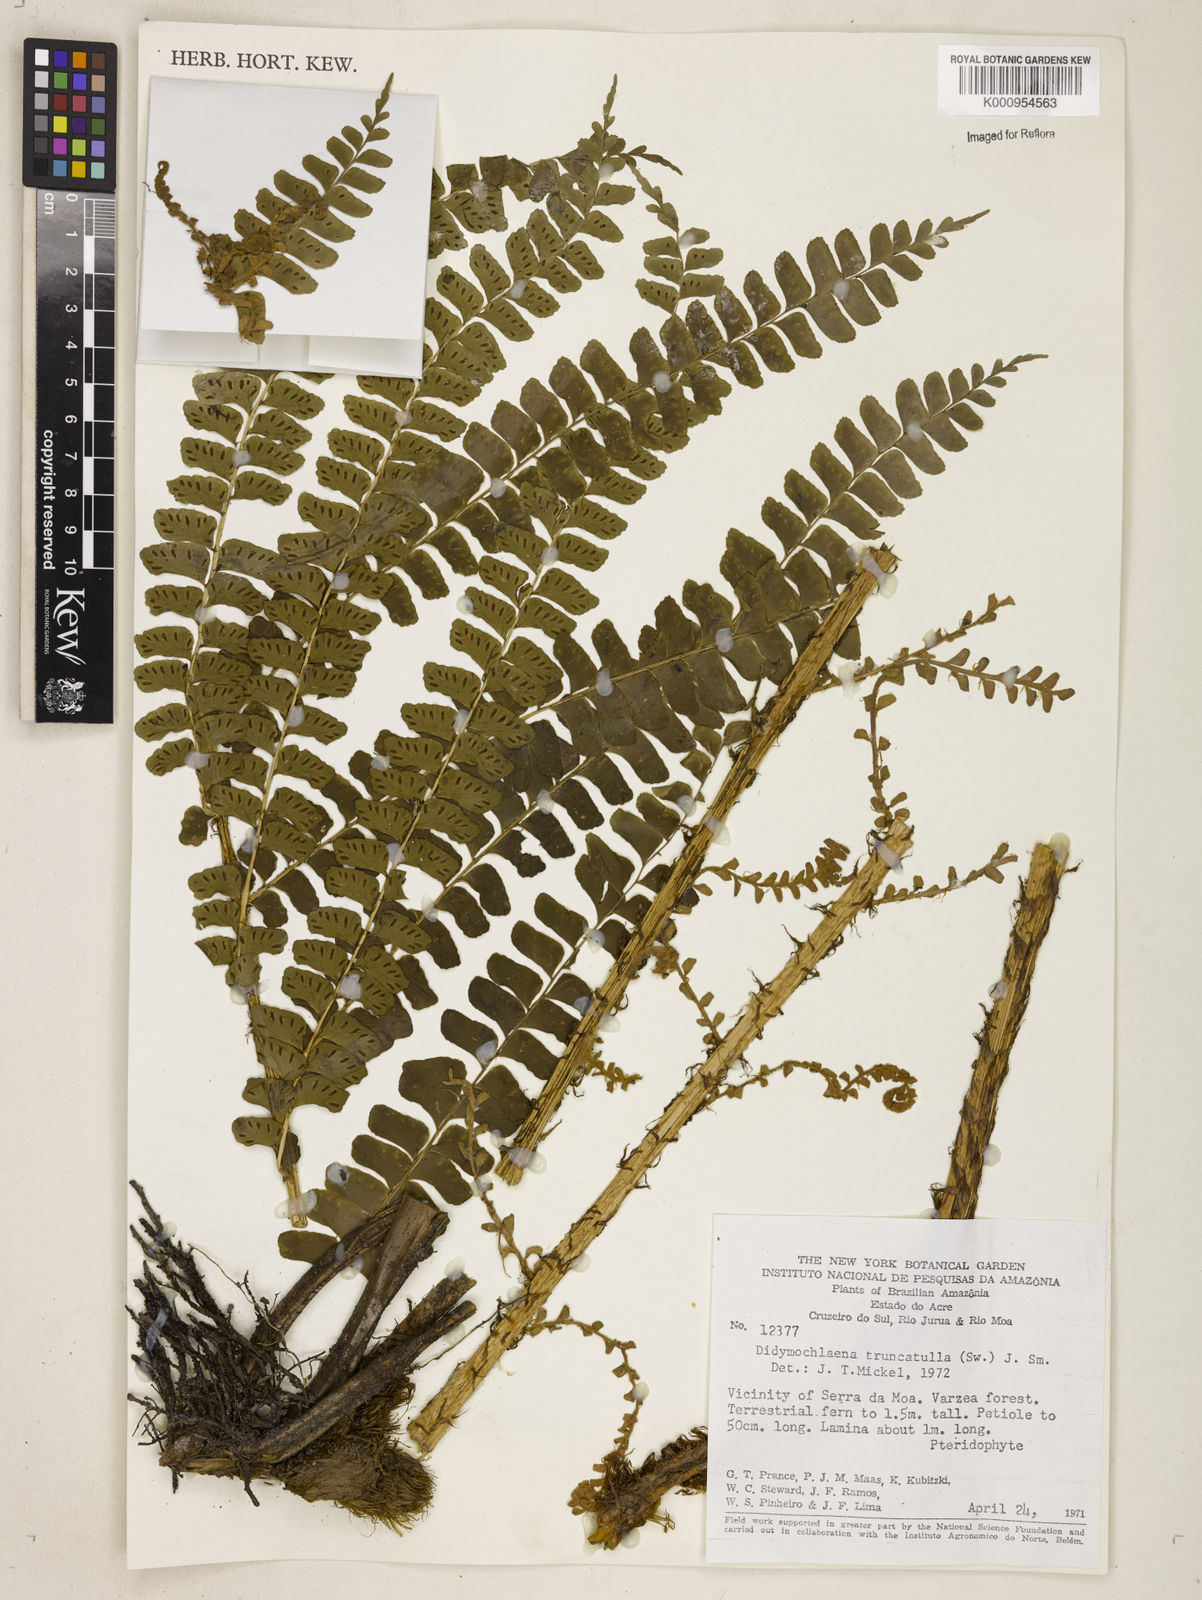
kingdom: Plantae
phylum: Tracheophyta
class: Polypodiopsida
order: Polypodiales
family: Didymochlaenaceae
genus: Didymochlaena
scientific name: Didymochlaena truncatula
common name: Mahogany fern
